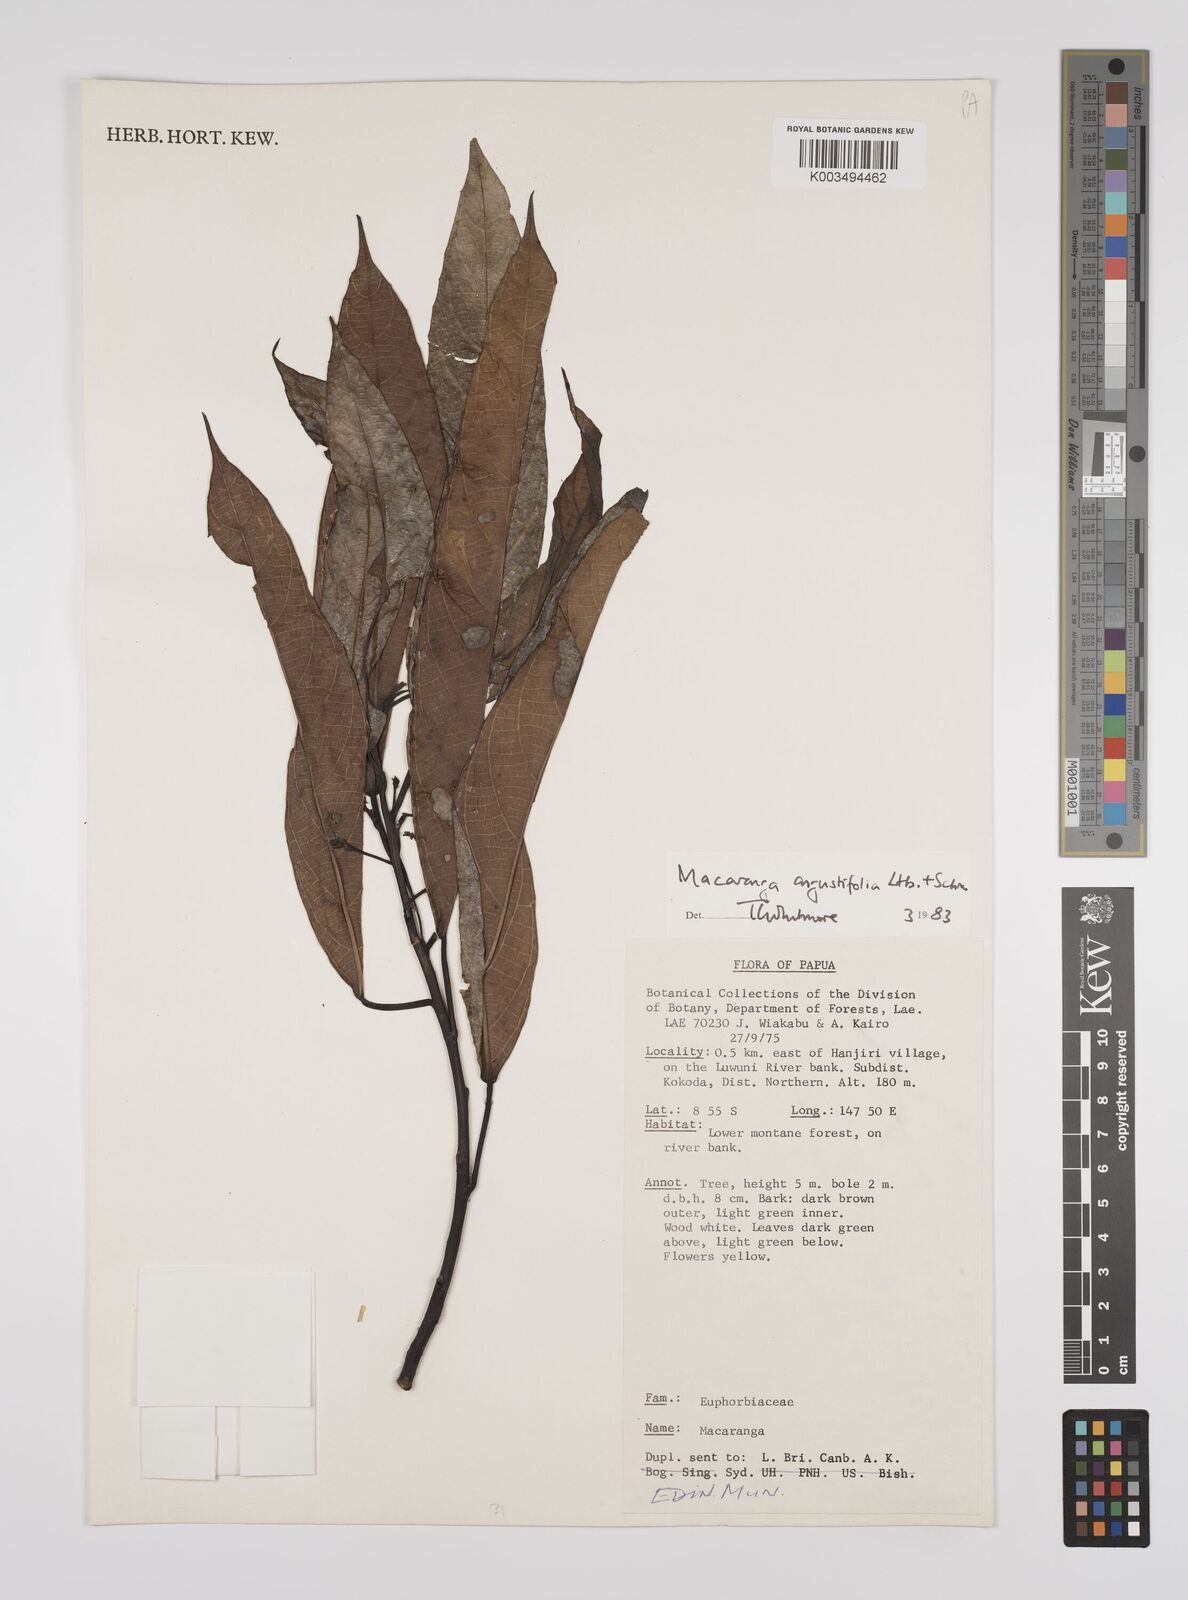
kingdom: Plantae
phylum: Tracheophyta
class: Magnoliopsida
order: Malpighiales
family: Euphorbiaceae
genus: Macaranga
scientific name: Macaranga angustifolia
